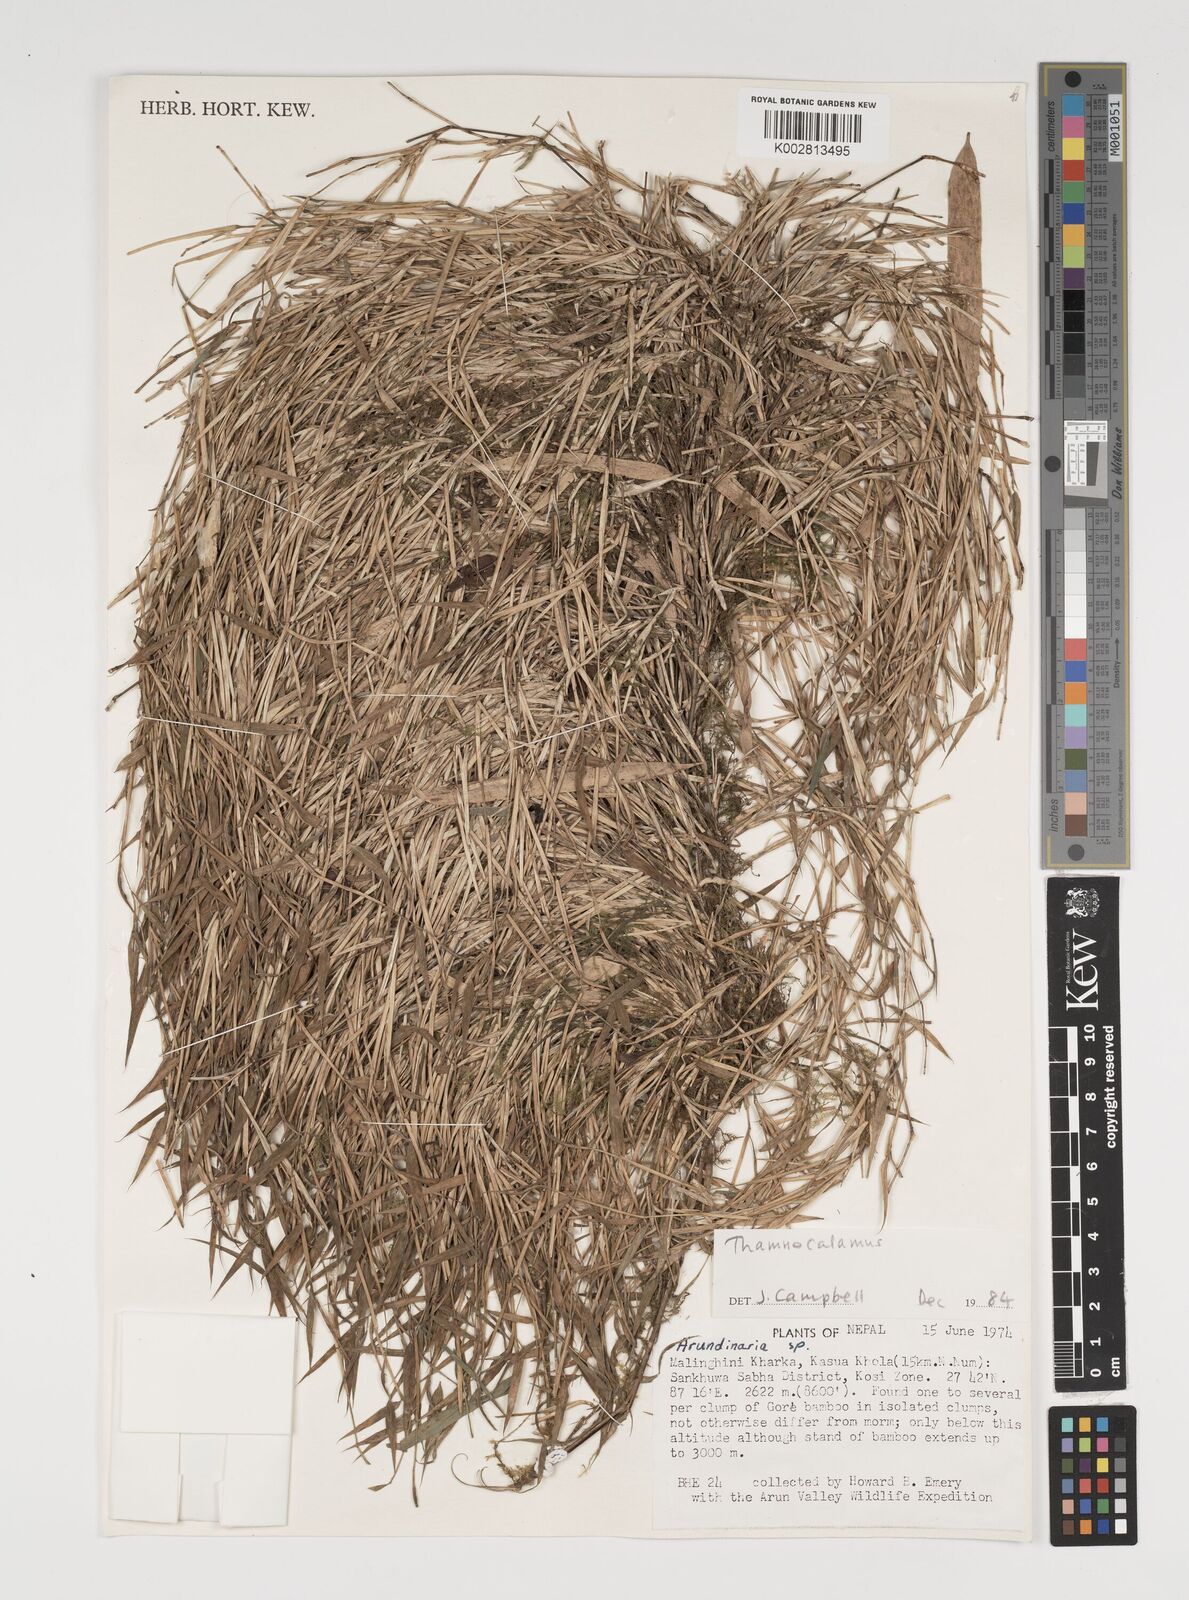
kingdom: Plantae
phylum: Tracheophyta
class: Liliopsida
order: Poales
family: Poaceae
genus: Thamnocalamus
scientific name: Thamnocalamus spathiflorus
